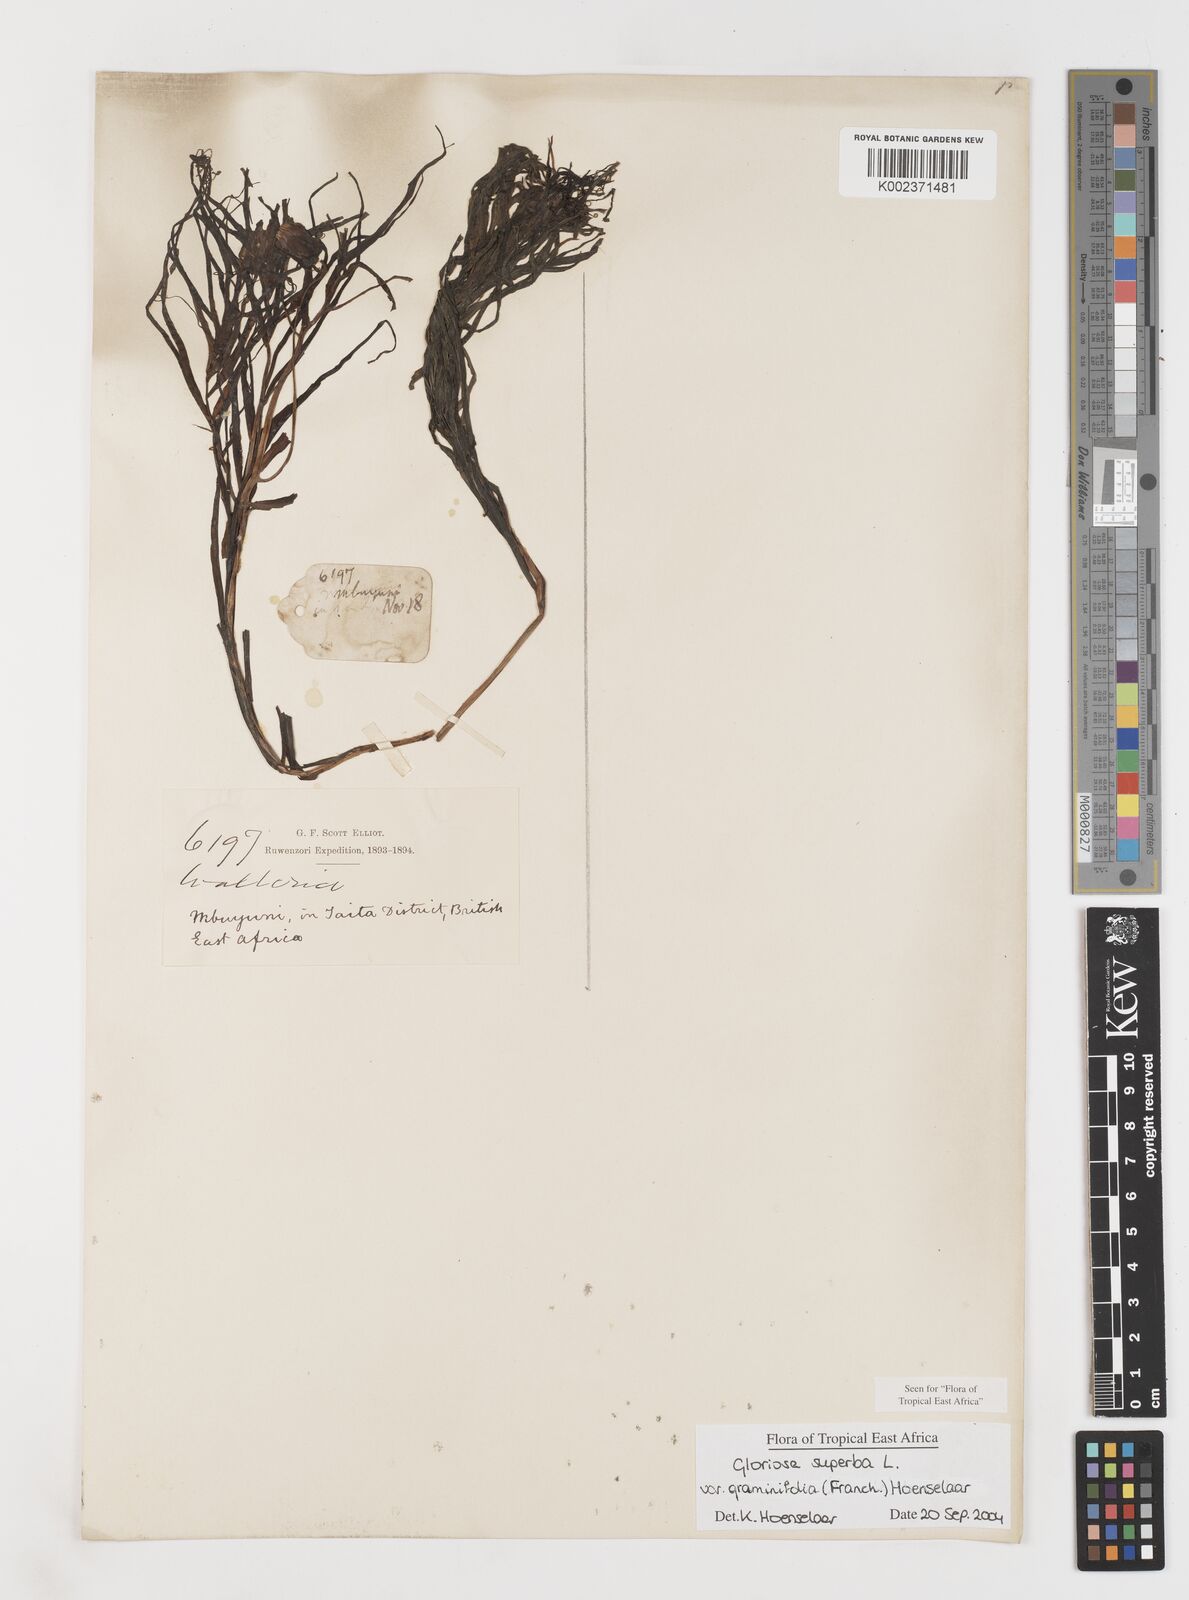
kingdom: Plantae
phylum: Tracheophyta
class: Liliopsida
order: Liliales
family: Colchicaceae
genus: Gloriosa
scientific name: Gloriosa baudii
